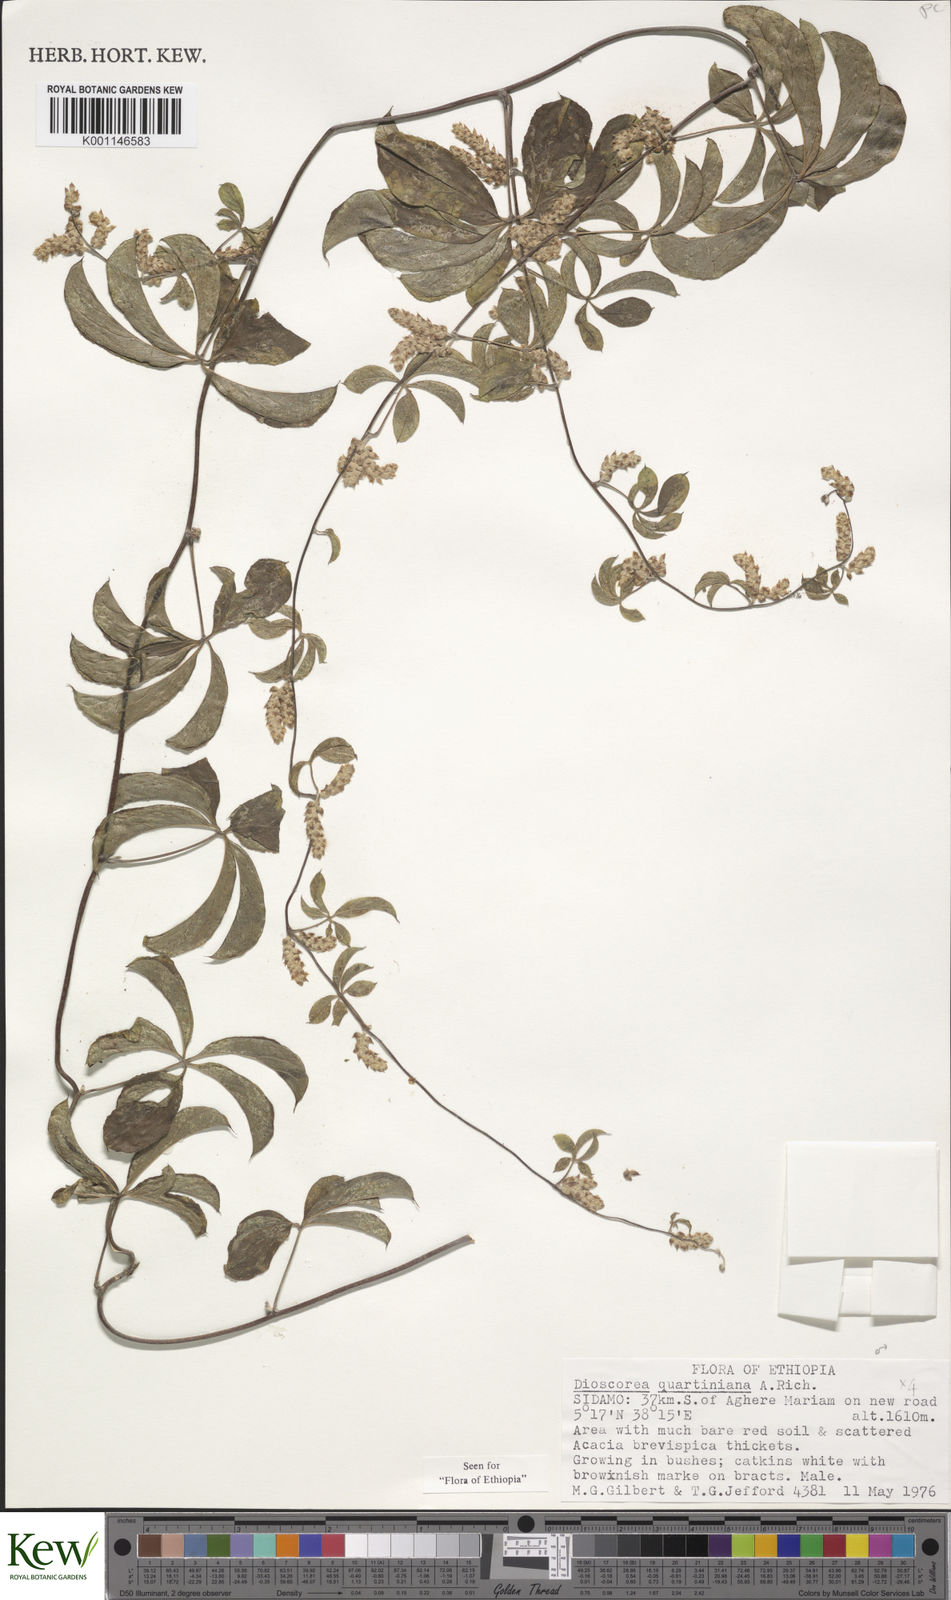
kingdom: Plantae
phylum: Tracheophyta
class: Liliopsida
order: Dioscoreales
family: Dioscoreaceae
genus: Dioscorea
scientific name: Dioscorea quartiniana
